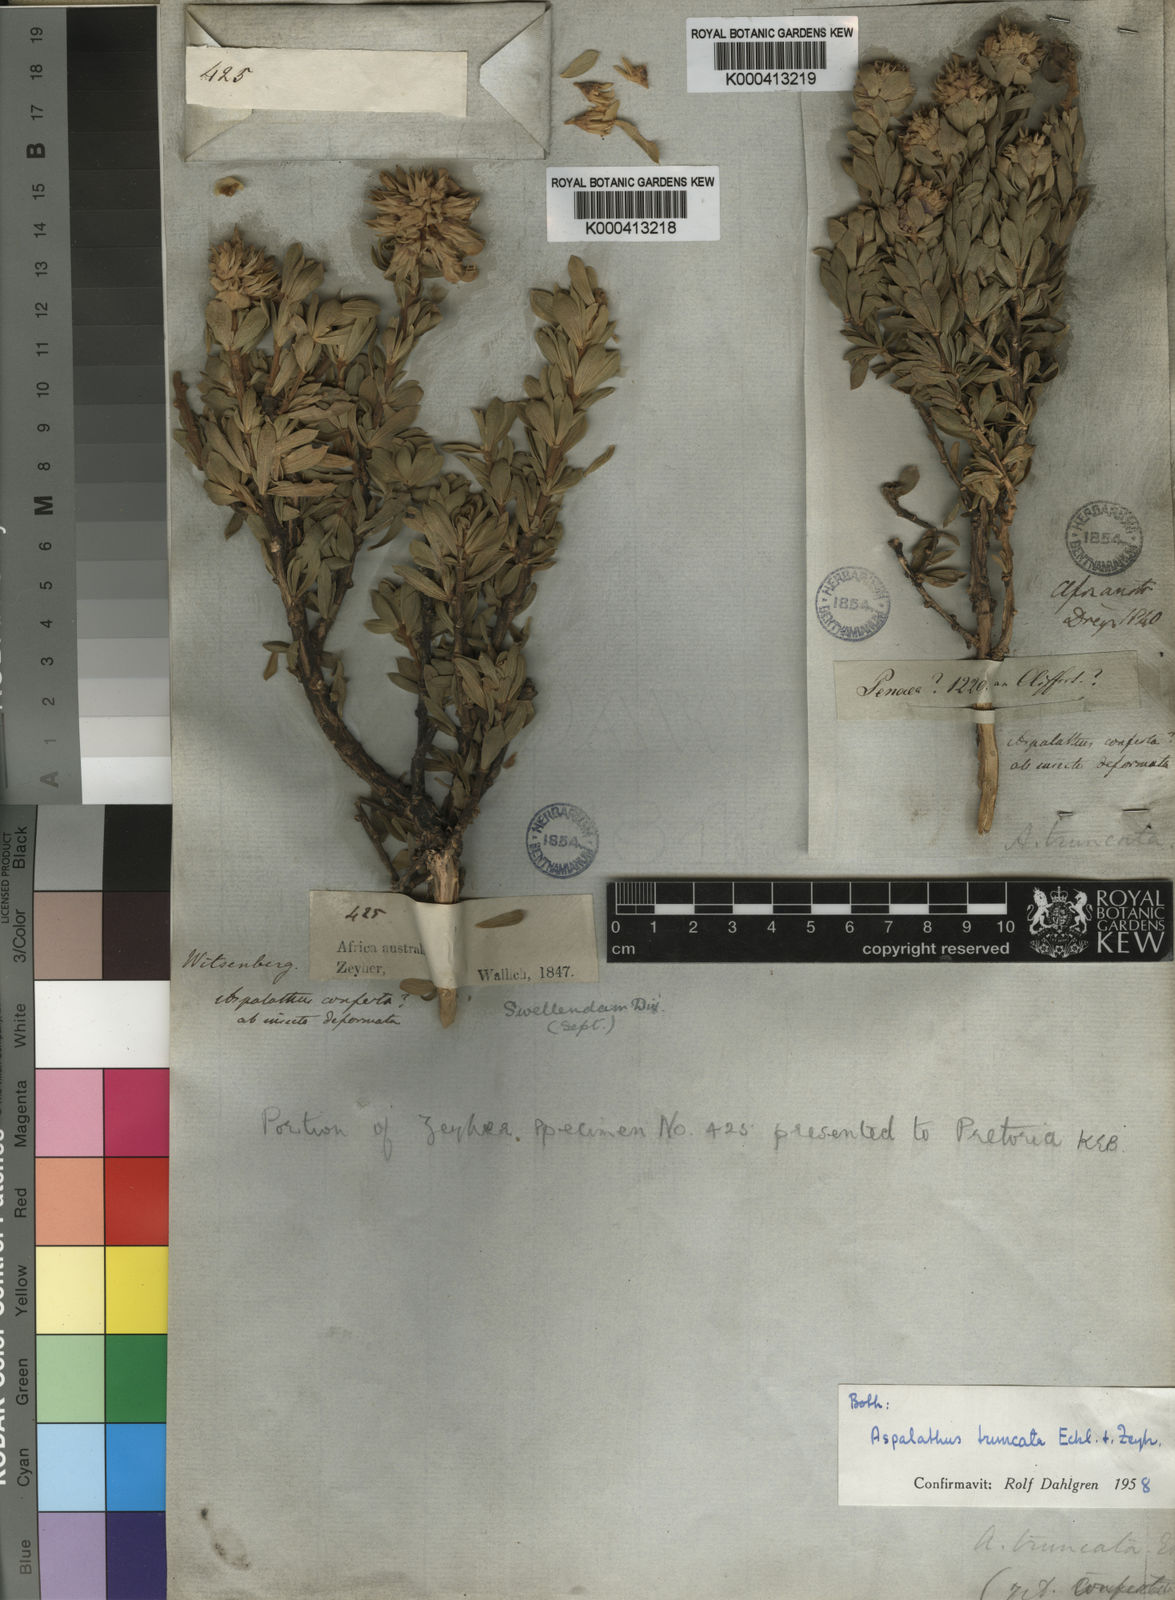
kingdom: Plantae
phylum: Tracheophyta
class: Magnoliopsida
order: Fabales
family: Fabaceae
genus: Aspalathus
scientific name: Aspalathus truncata
